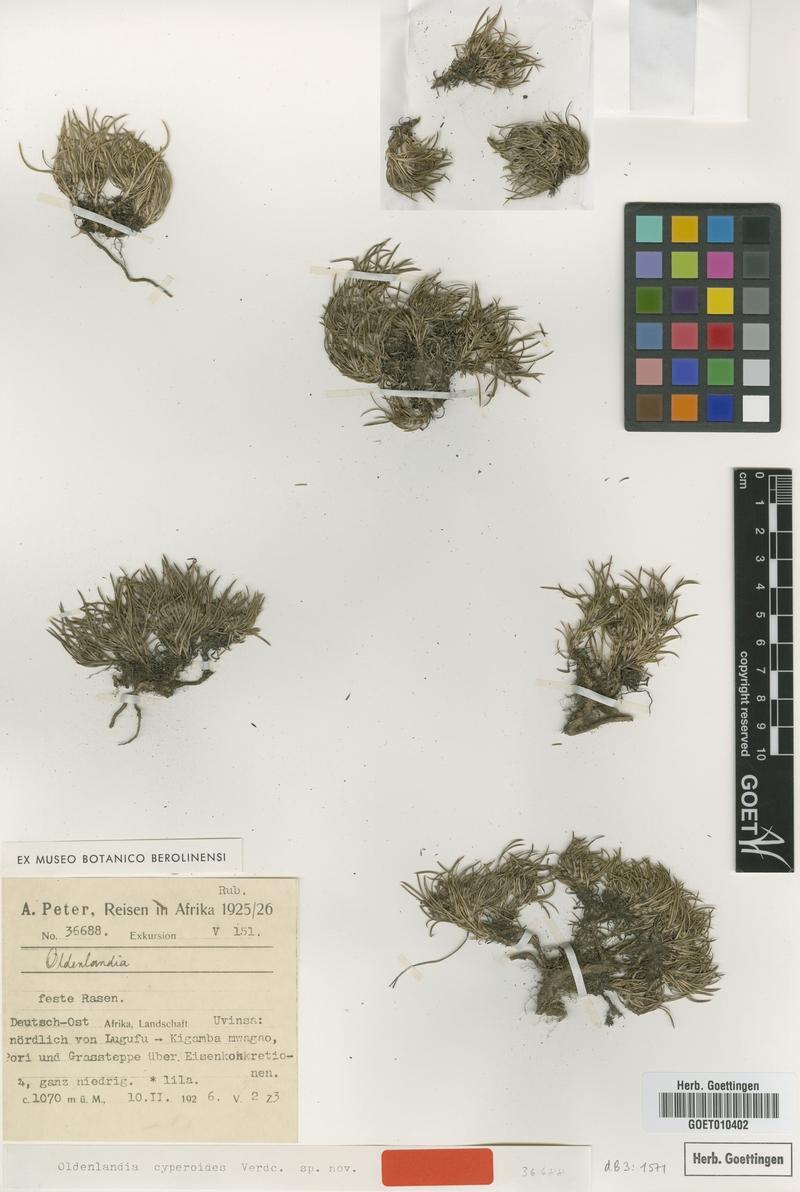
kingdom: Plantae
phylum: Tracheophyta
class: Magnoliopsida
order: Gentianales
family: Rubiaceae
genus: Oldenlandia
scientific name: Oldenlandia cyperoides
